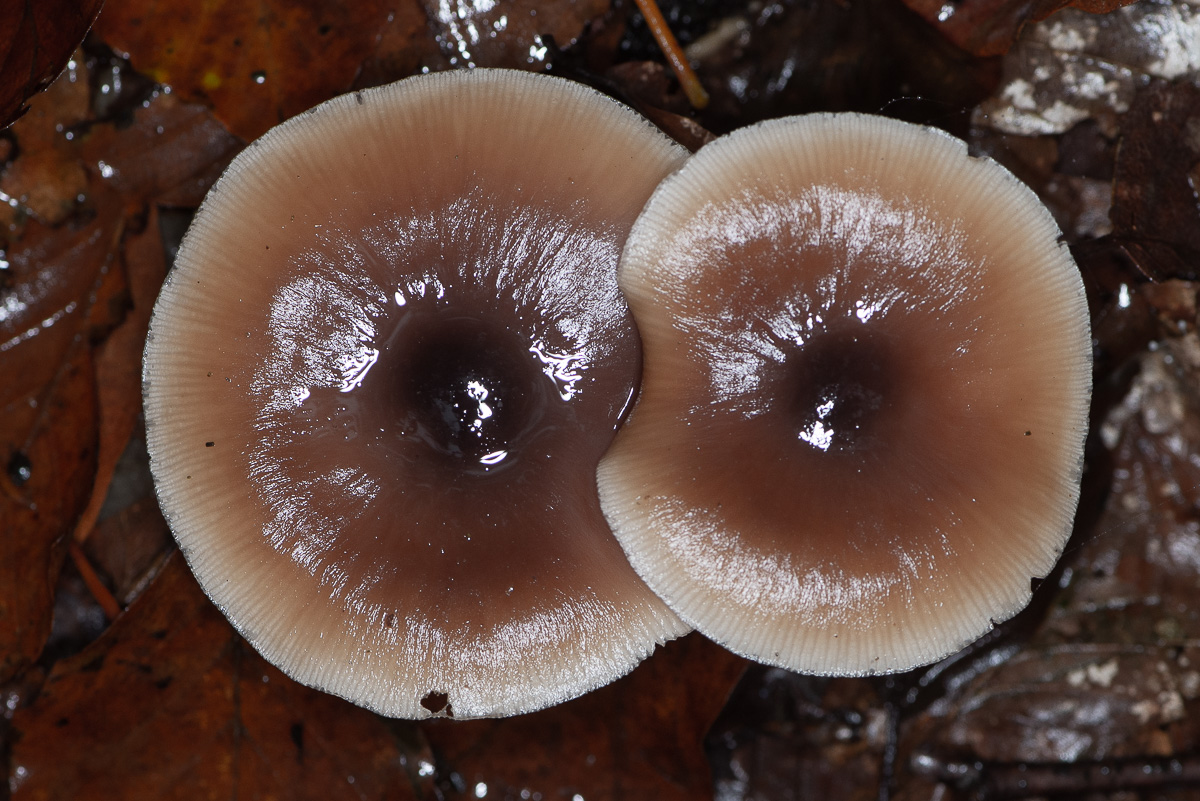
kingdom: Fungi
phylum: Basidiomycota
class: Agaricomycetes
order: Agaricales
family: Omphalotaceae
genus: Rhodocollybia
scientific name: Rhodocollybia asema
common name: horngrå fladhat
